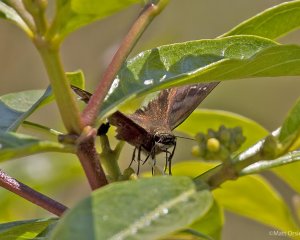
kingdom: Animalia
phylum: Arthropoda
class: Insecta
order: Lepidoptera
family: Hesperiidae
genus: Ephyriades
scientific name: Ephyriades brunnea
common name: Florida Duskywing
